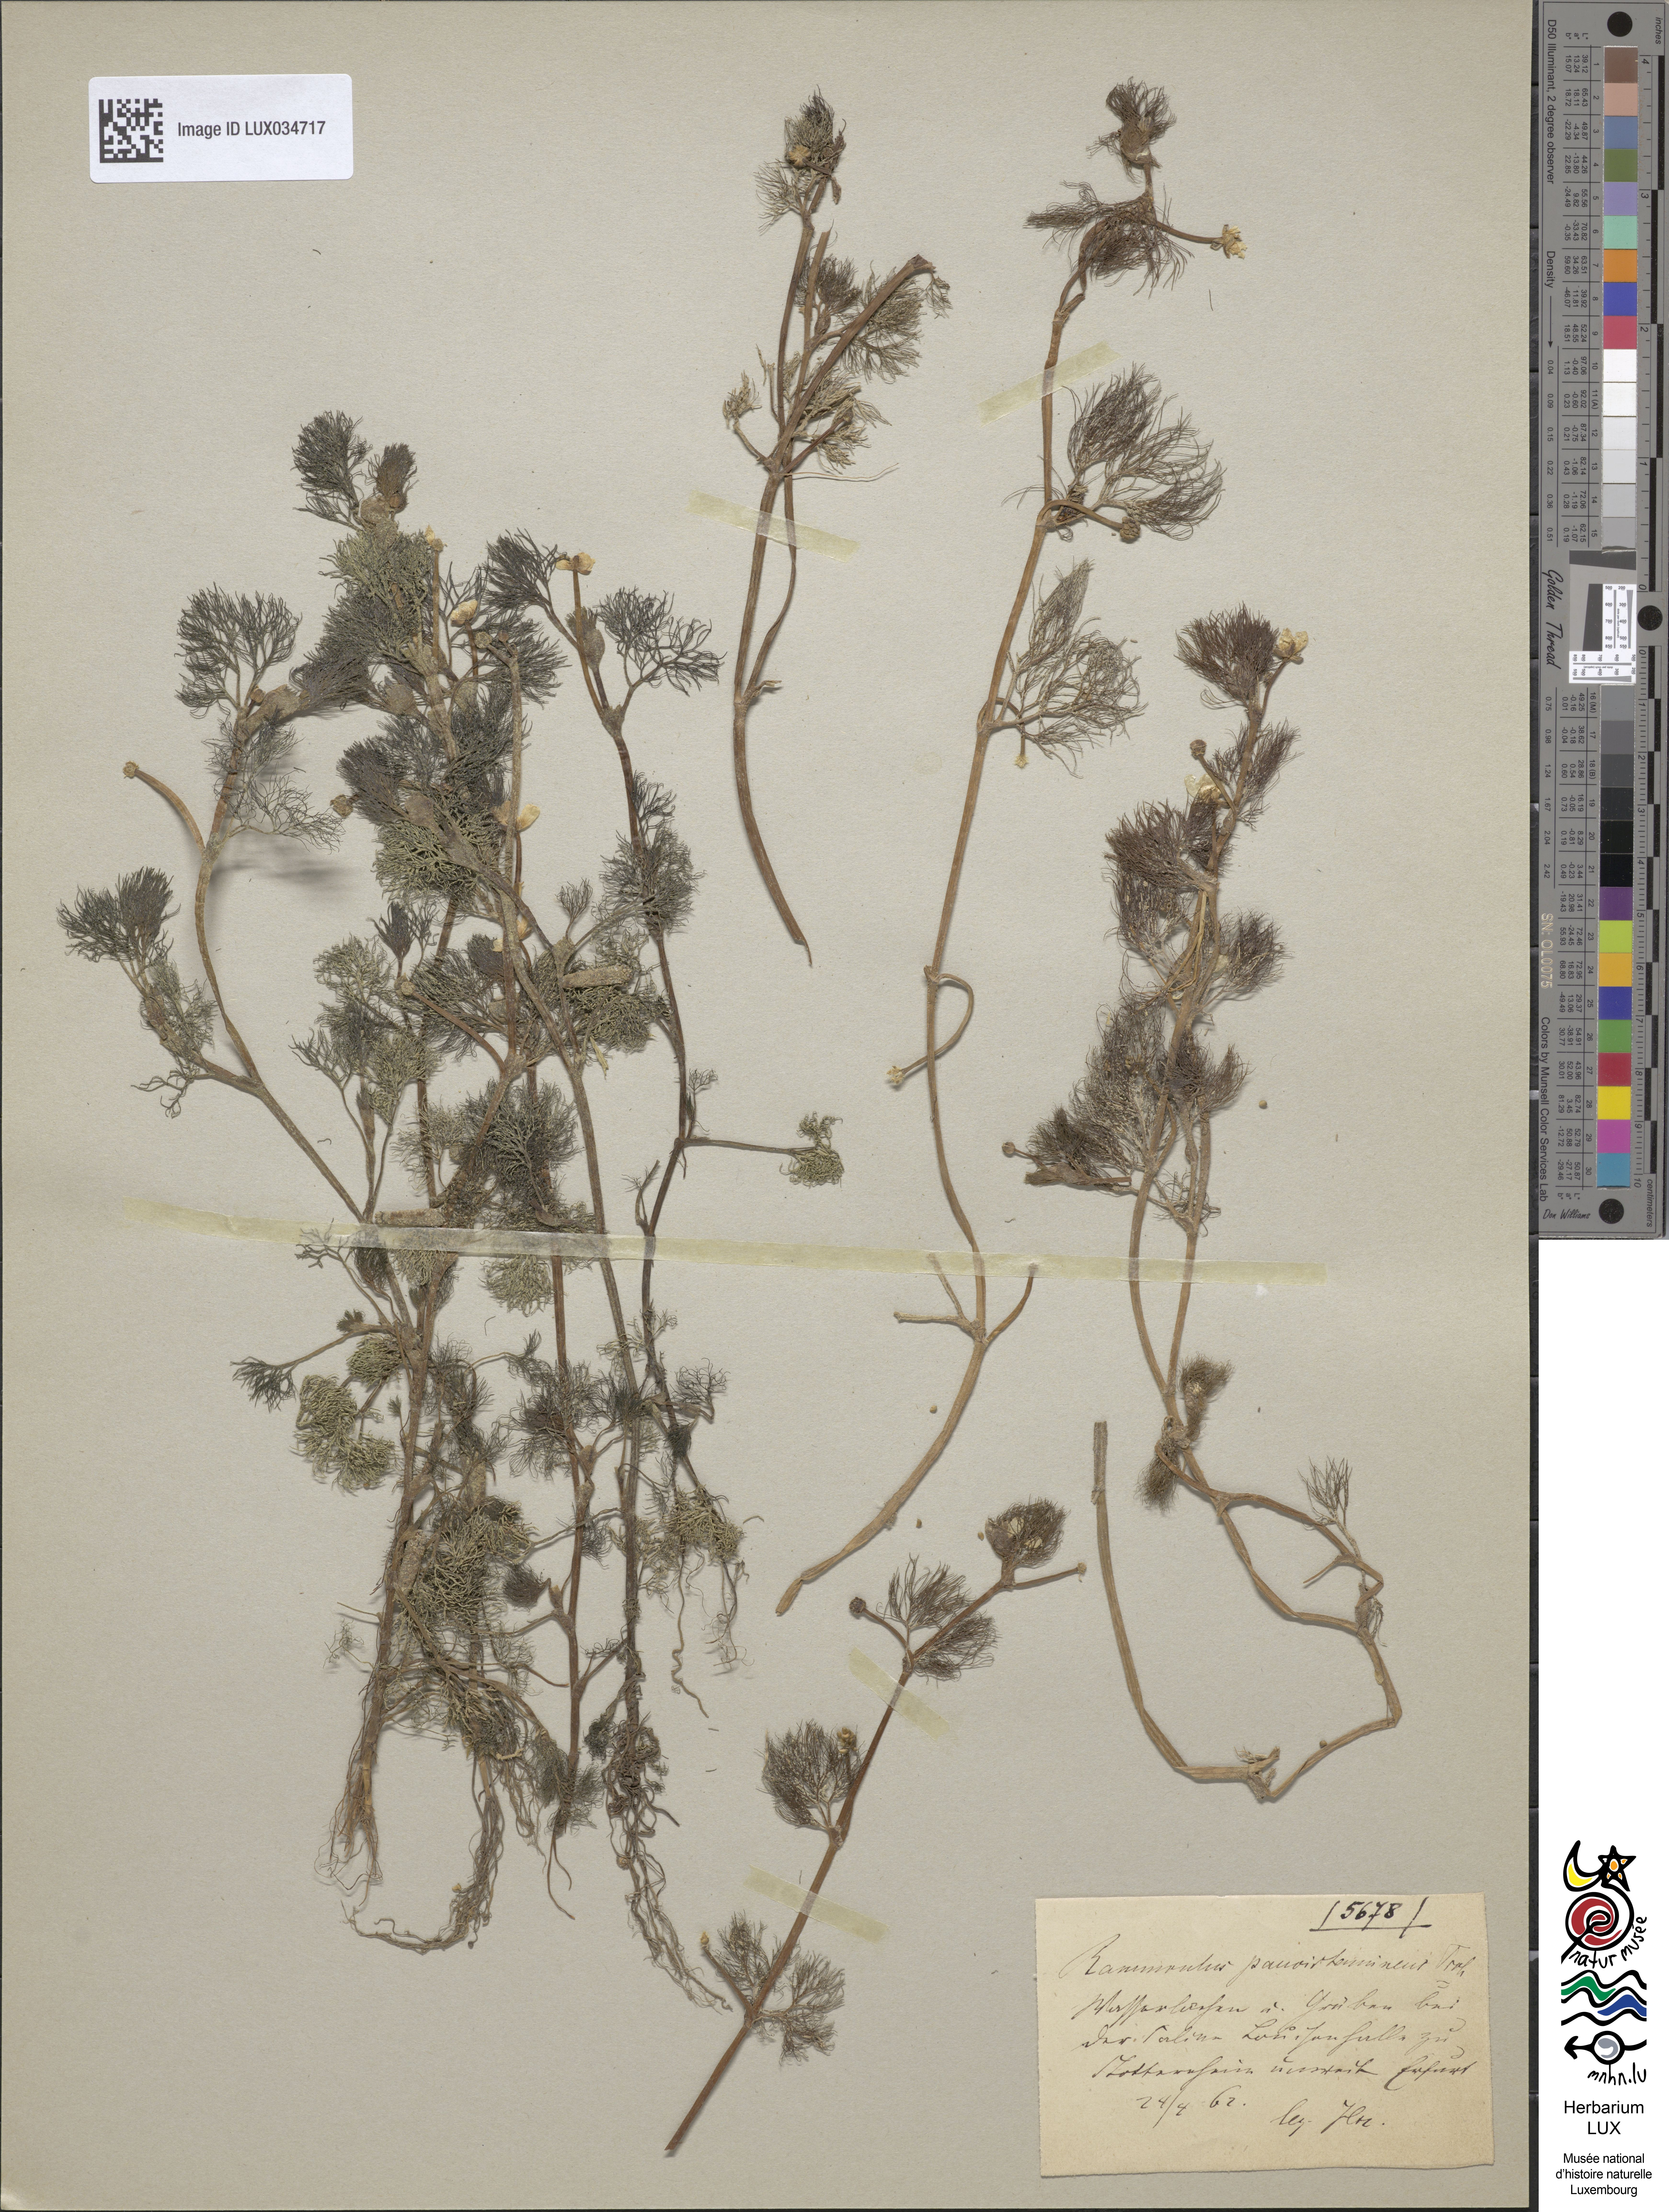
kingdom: Plantae
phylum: Tracheophyta
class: Magnoliopsida
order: Ranunculales
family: Ranunculaceae
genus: Ranunculus
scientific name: Ranunculus
